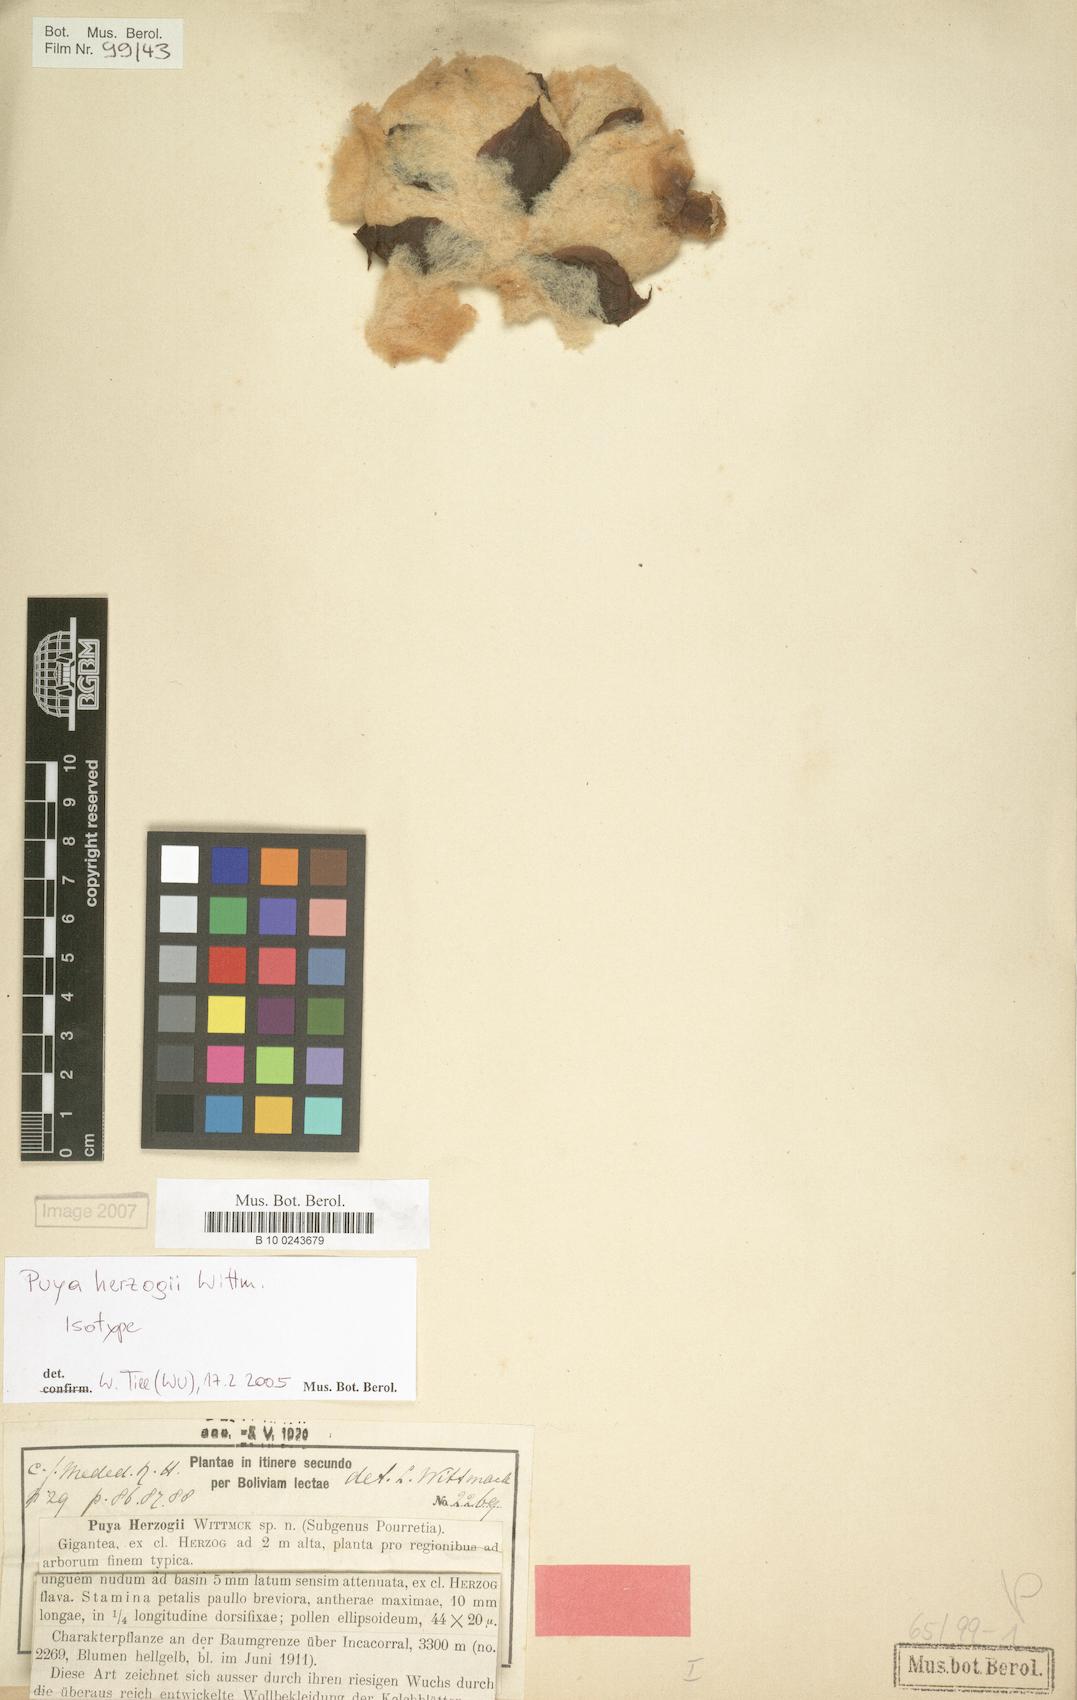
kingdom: Plantae
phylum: Tracheophyta
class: Liliopsida
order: Poales
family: Bromeliaceae
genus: Puya
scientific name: Puya herzogii
